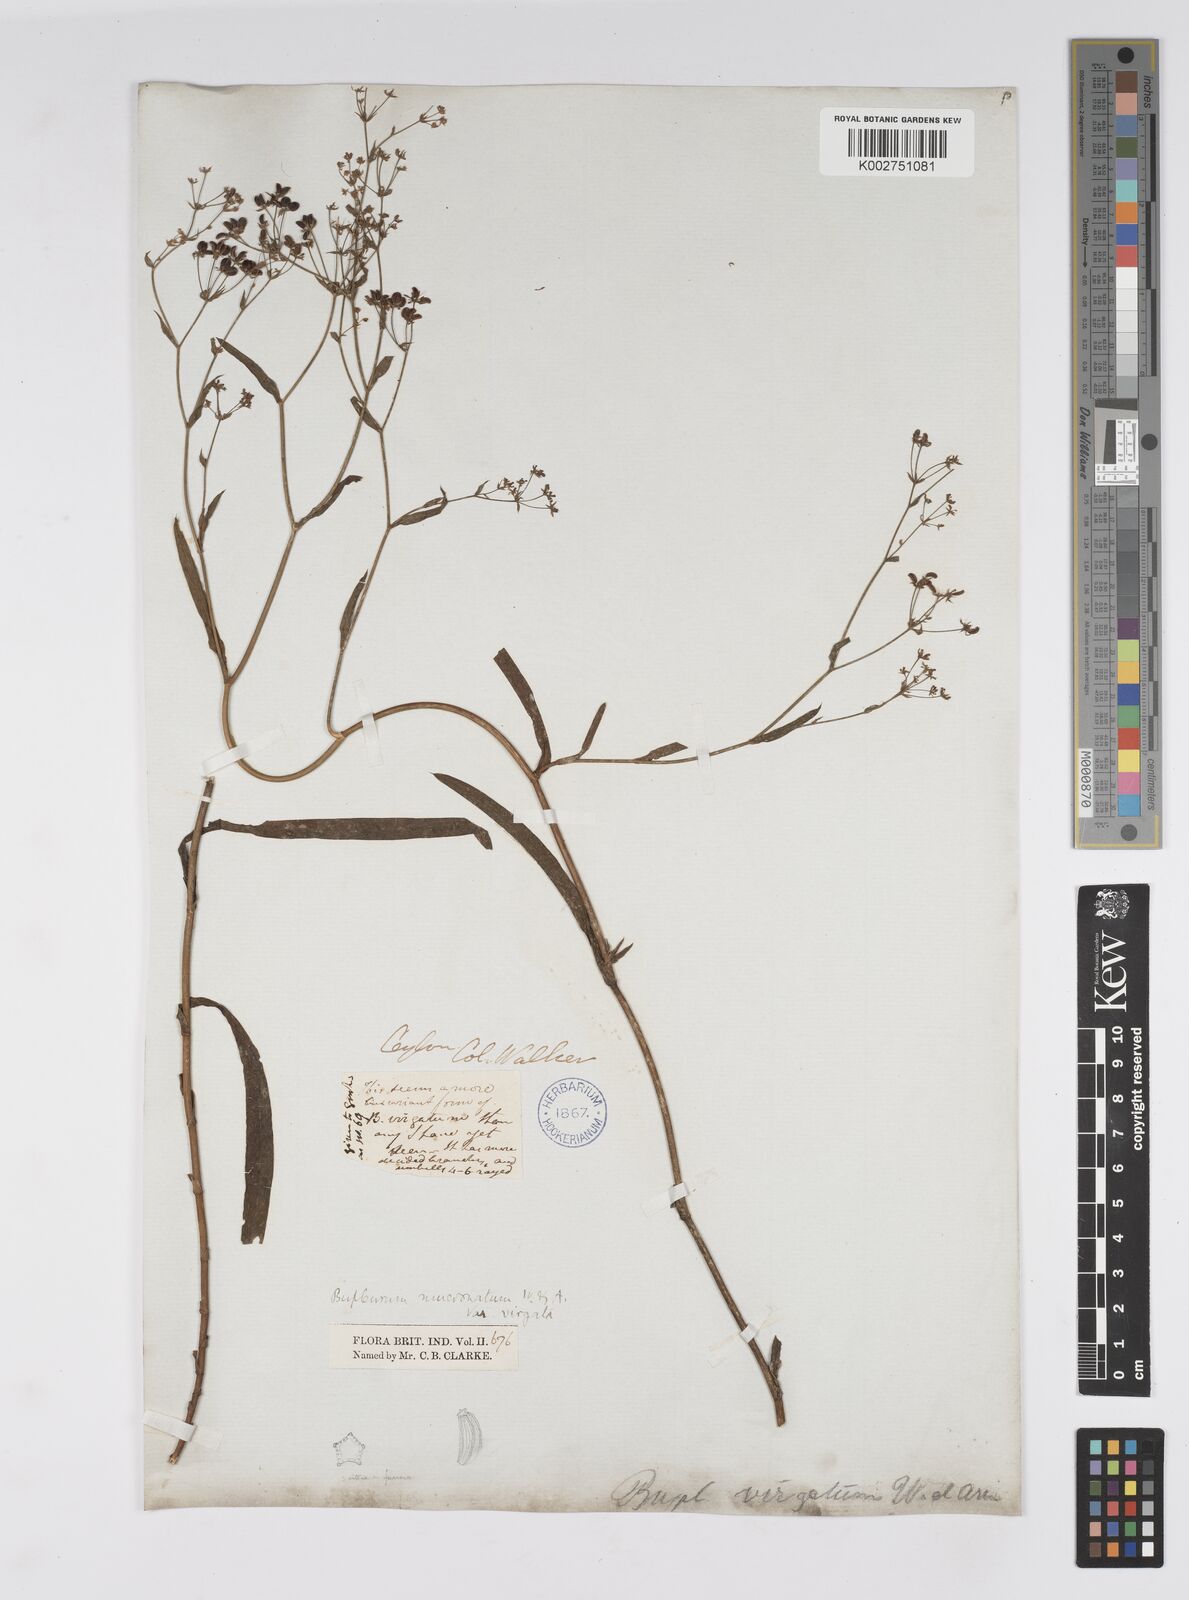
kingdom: Plantae
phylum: Tracheophyta
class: Magnoliopsida
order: Apiales
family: Apiaceae
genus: Bupleurum
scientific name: Bupleurum ramosissimum
